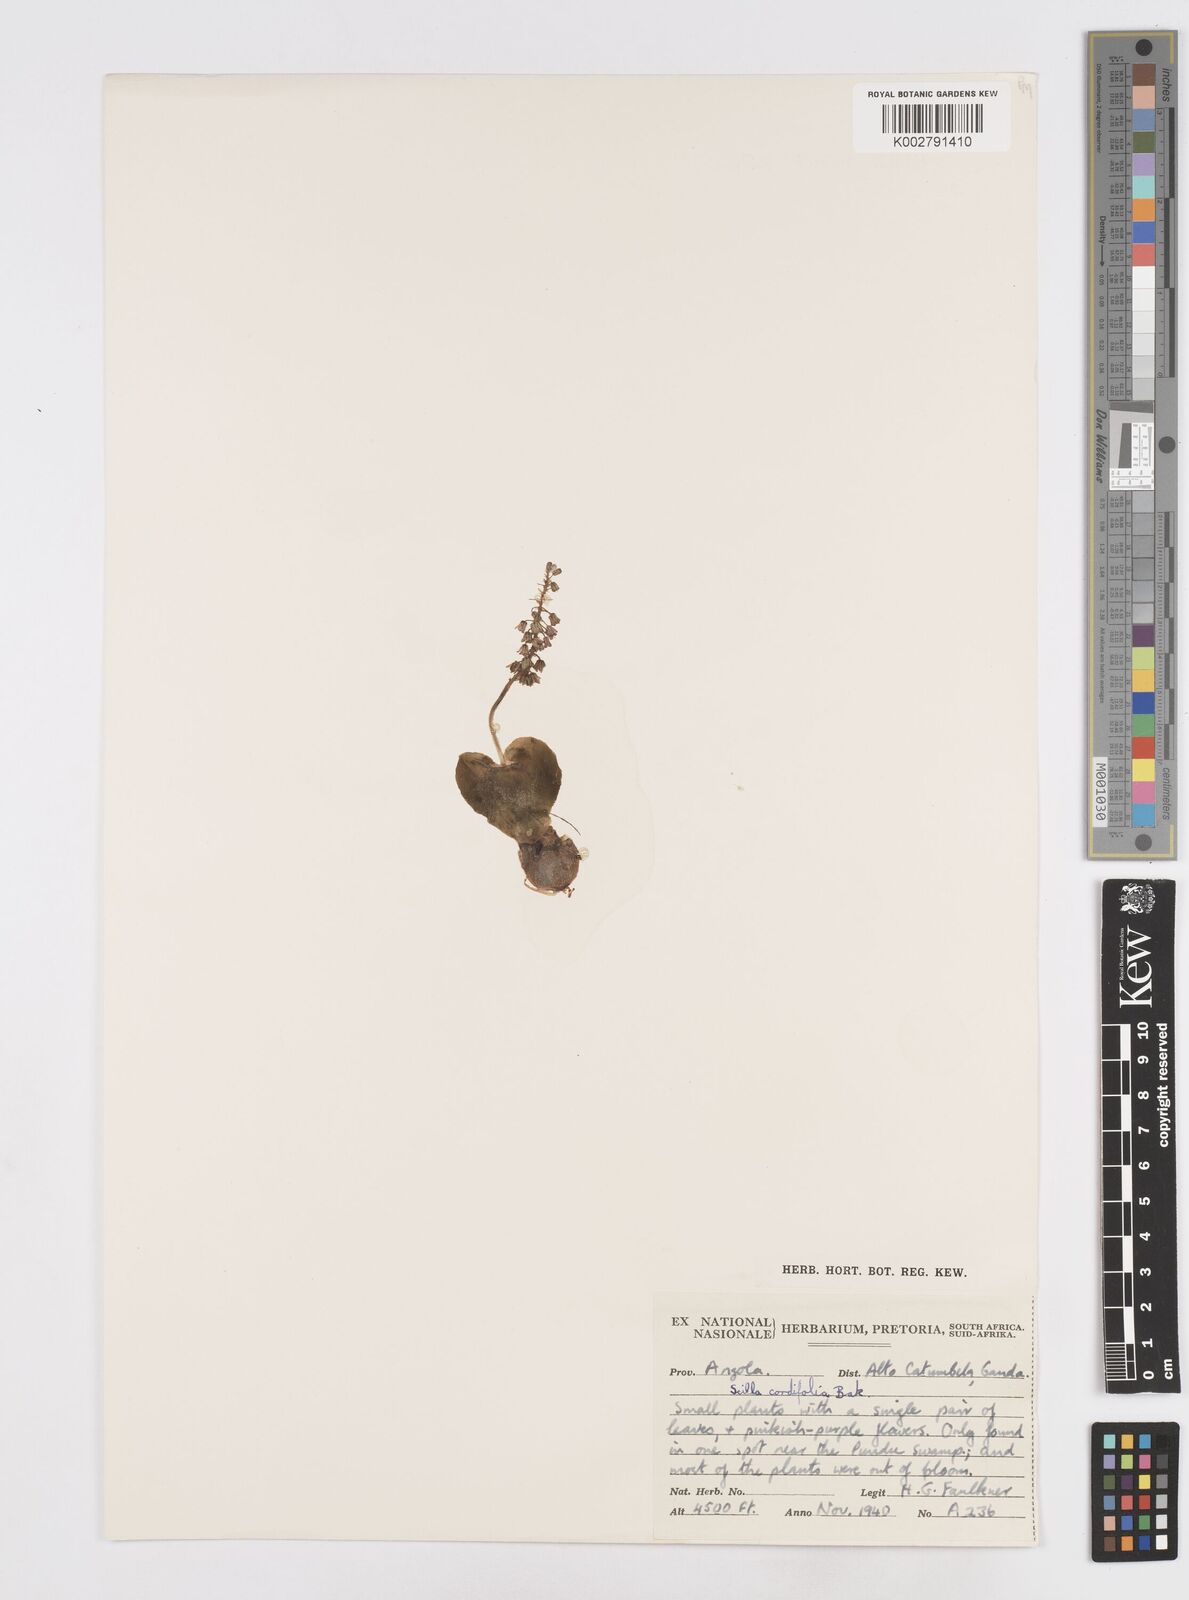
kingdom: Plantae
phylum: Tracheophyta
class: Liliopsida
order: Asparagales
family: Asparagaceae
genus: Ledebouria
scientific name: Ledebouria cordifolia
